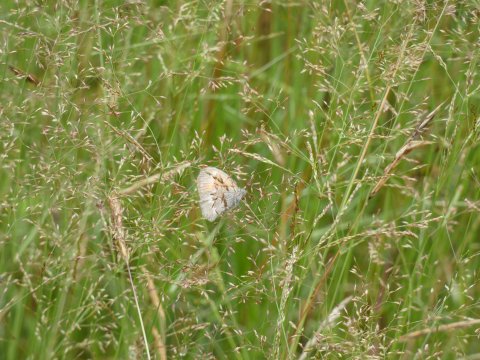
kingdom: Animalia
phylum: Arthropoda
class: Insecta
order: Lepidoptera
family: Nymphalidae
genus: Coenonympha
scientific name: Coenonympha tullia
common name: Large Heath
